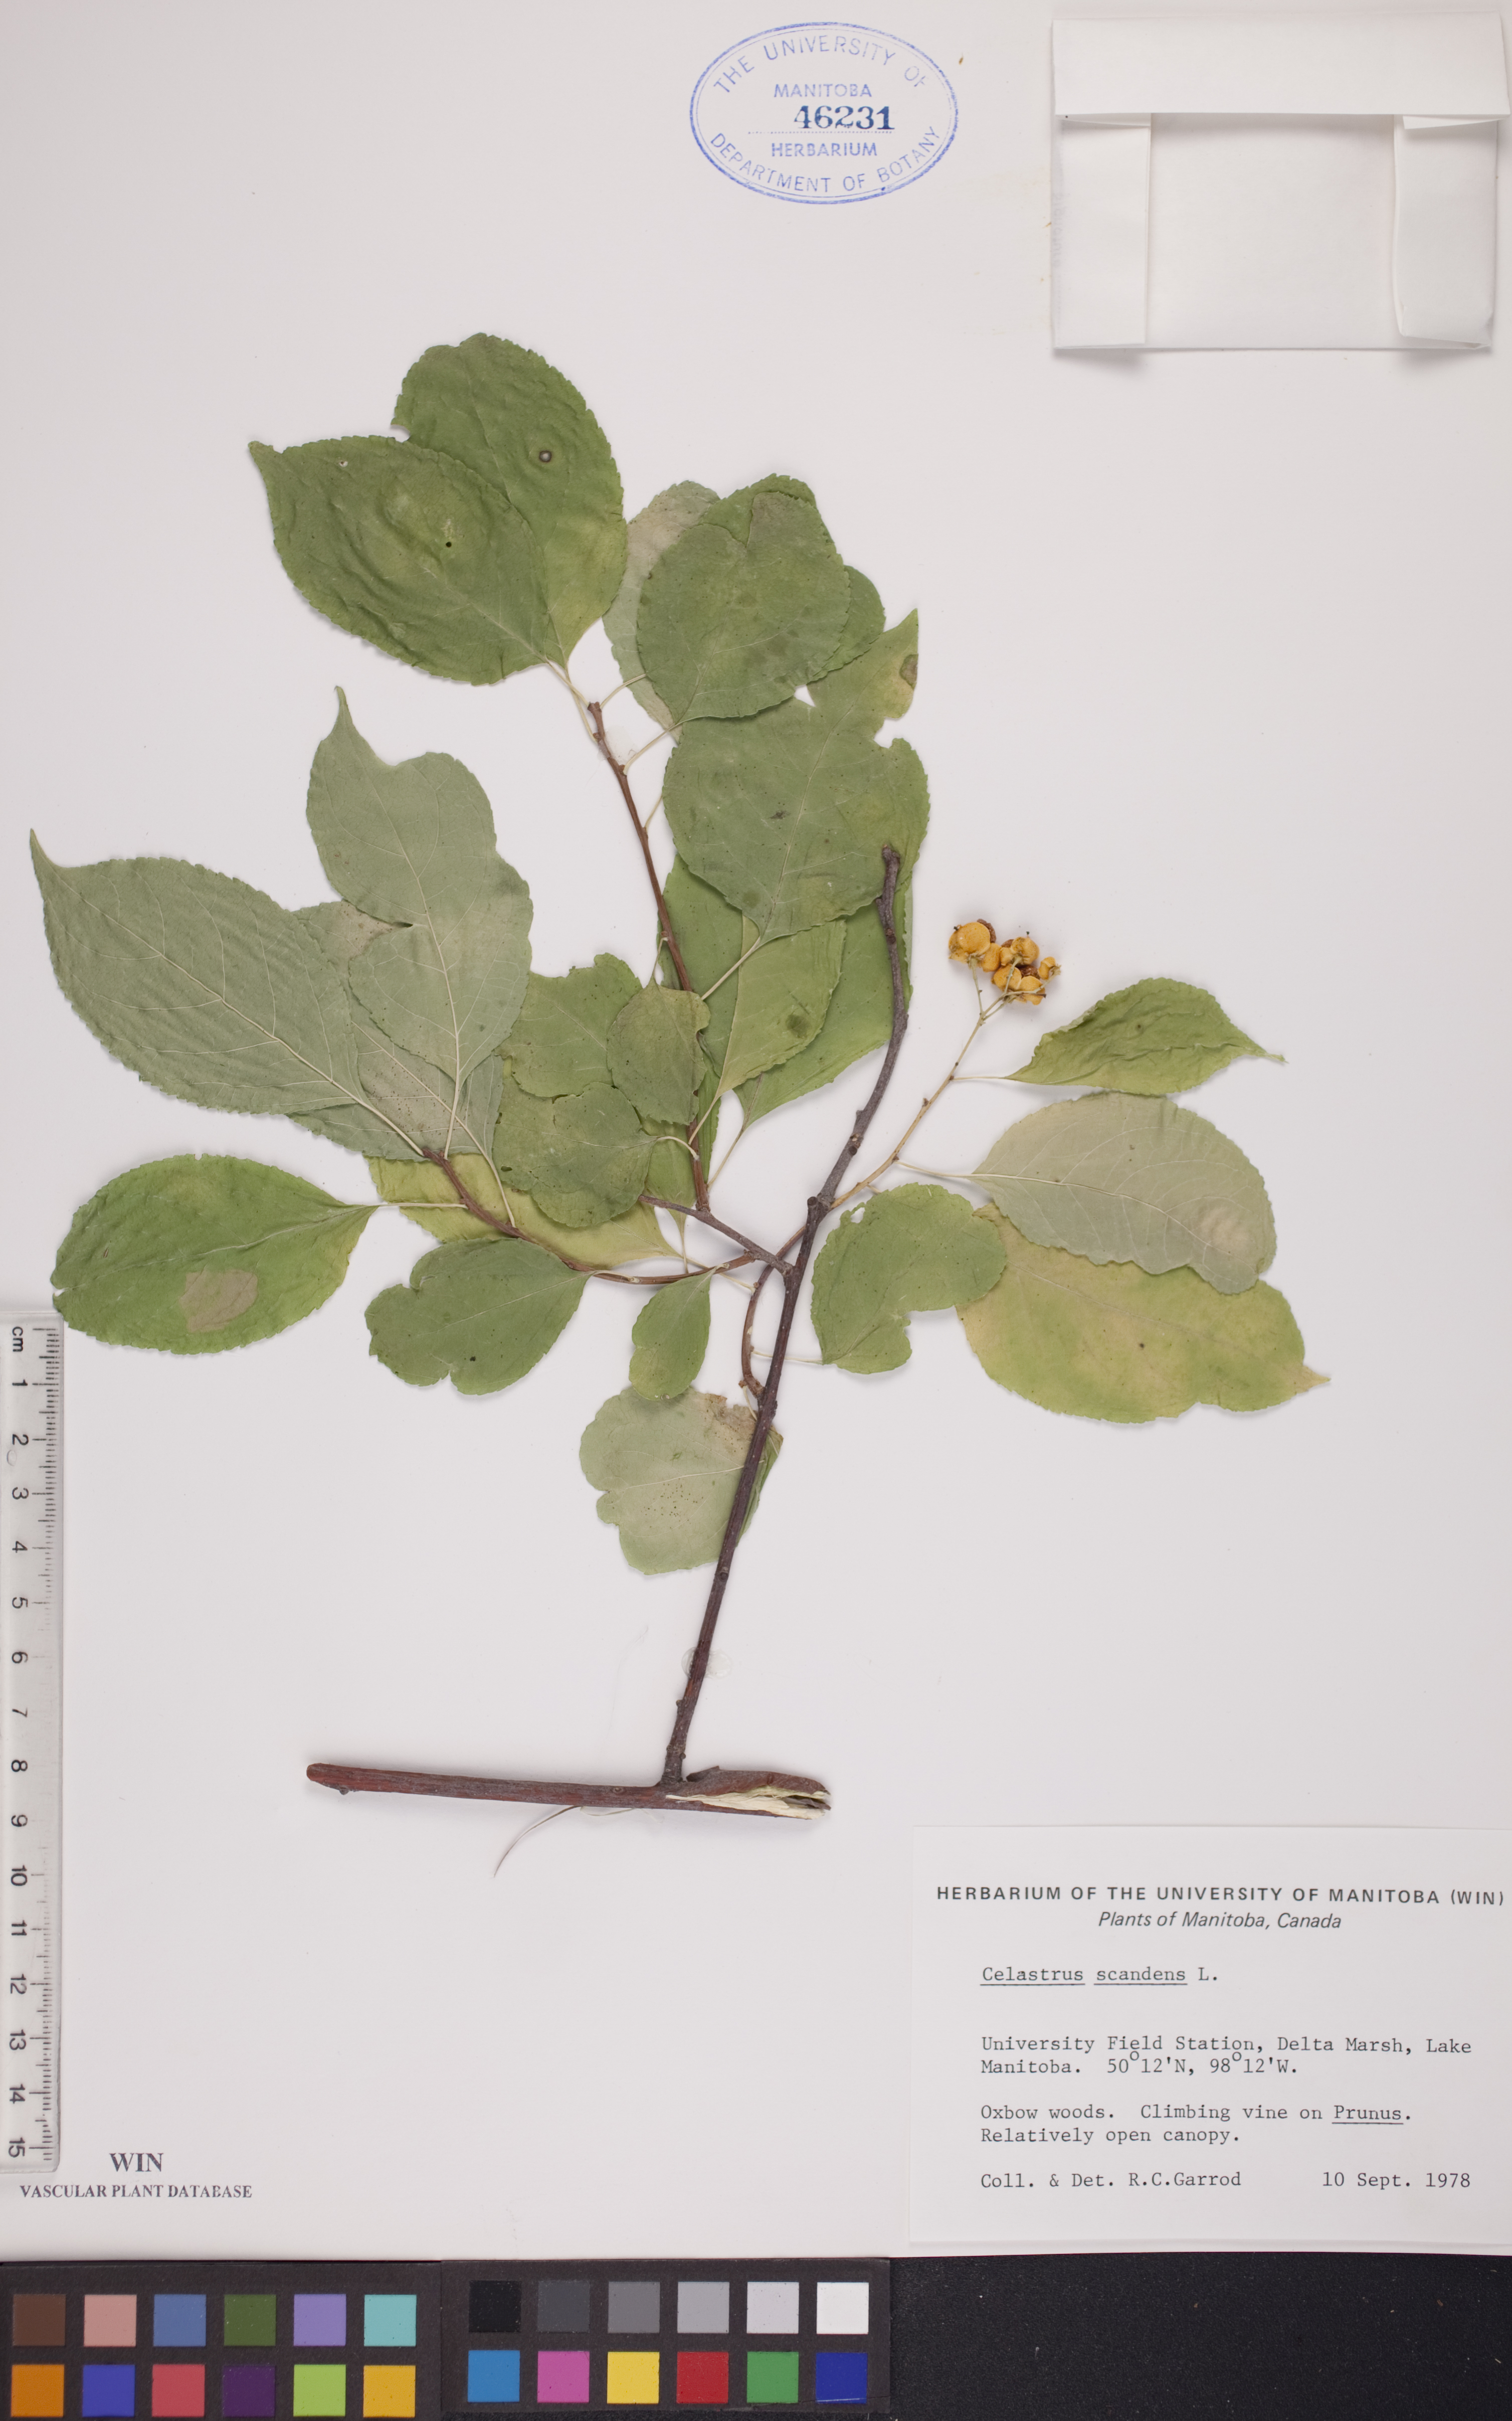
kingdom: Plantae
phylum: Tracheophyta
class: Magnoliopsida
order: Celastrales
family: Celastraceae
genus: Celastrus
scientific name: Celastrus scandens
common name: American bittersweet
